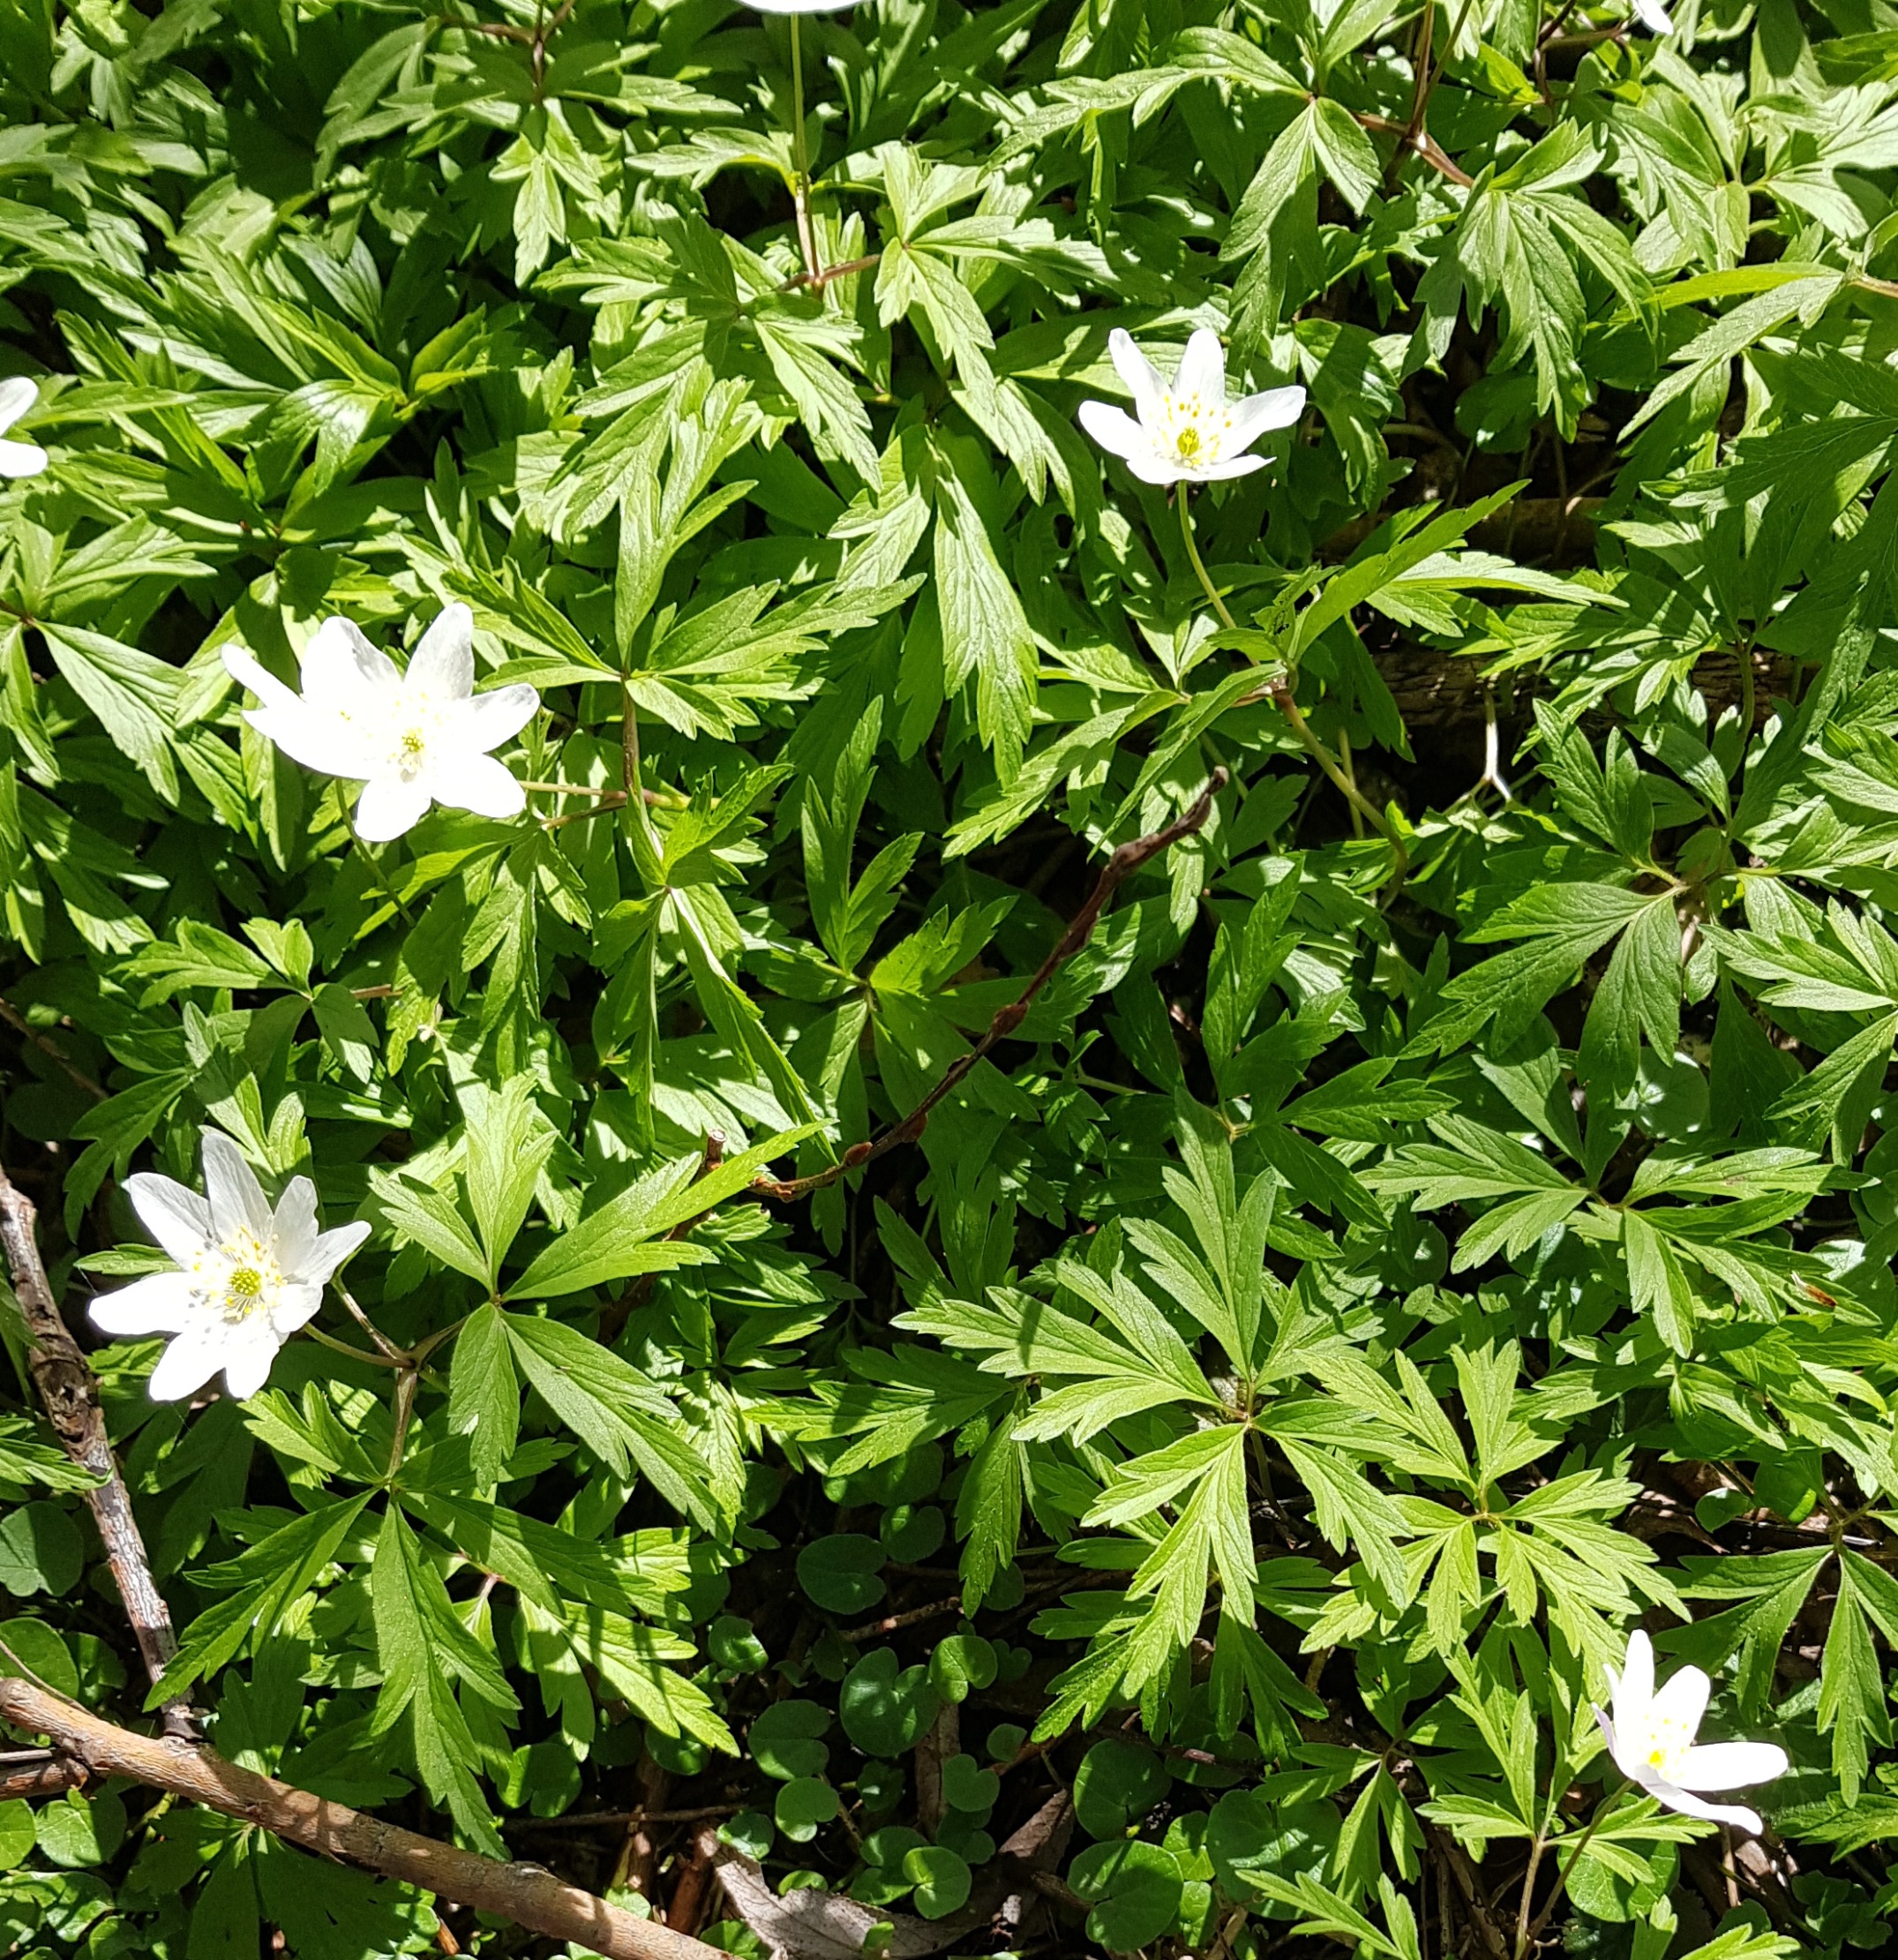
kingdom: Plantae
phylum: Tracheophyta
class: Magnoliopsida
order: Ranunculales
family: Ranunculaceae
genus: Anemone
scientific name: Anemone nemorosa
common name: Hvid anemone
